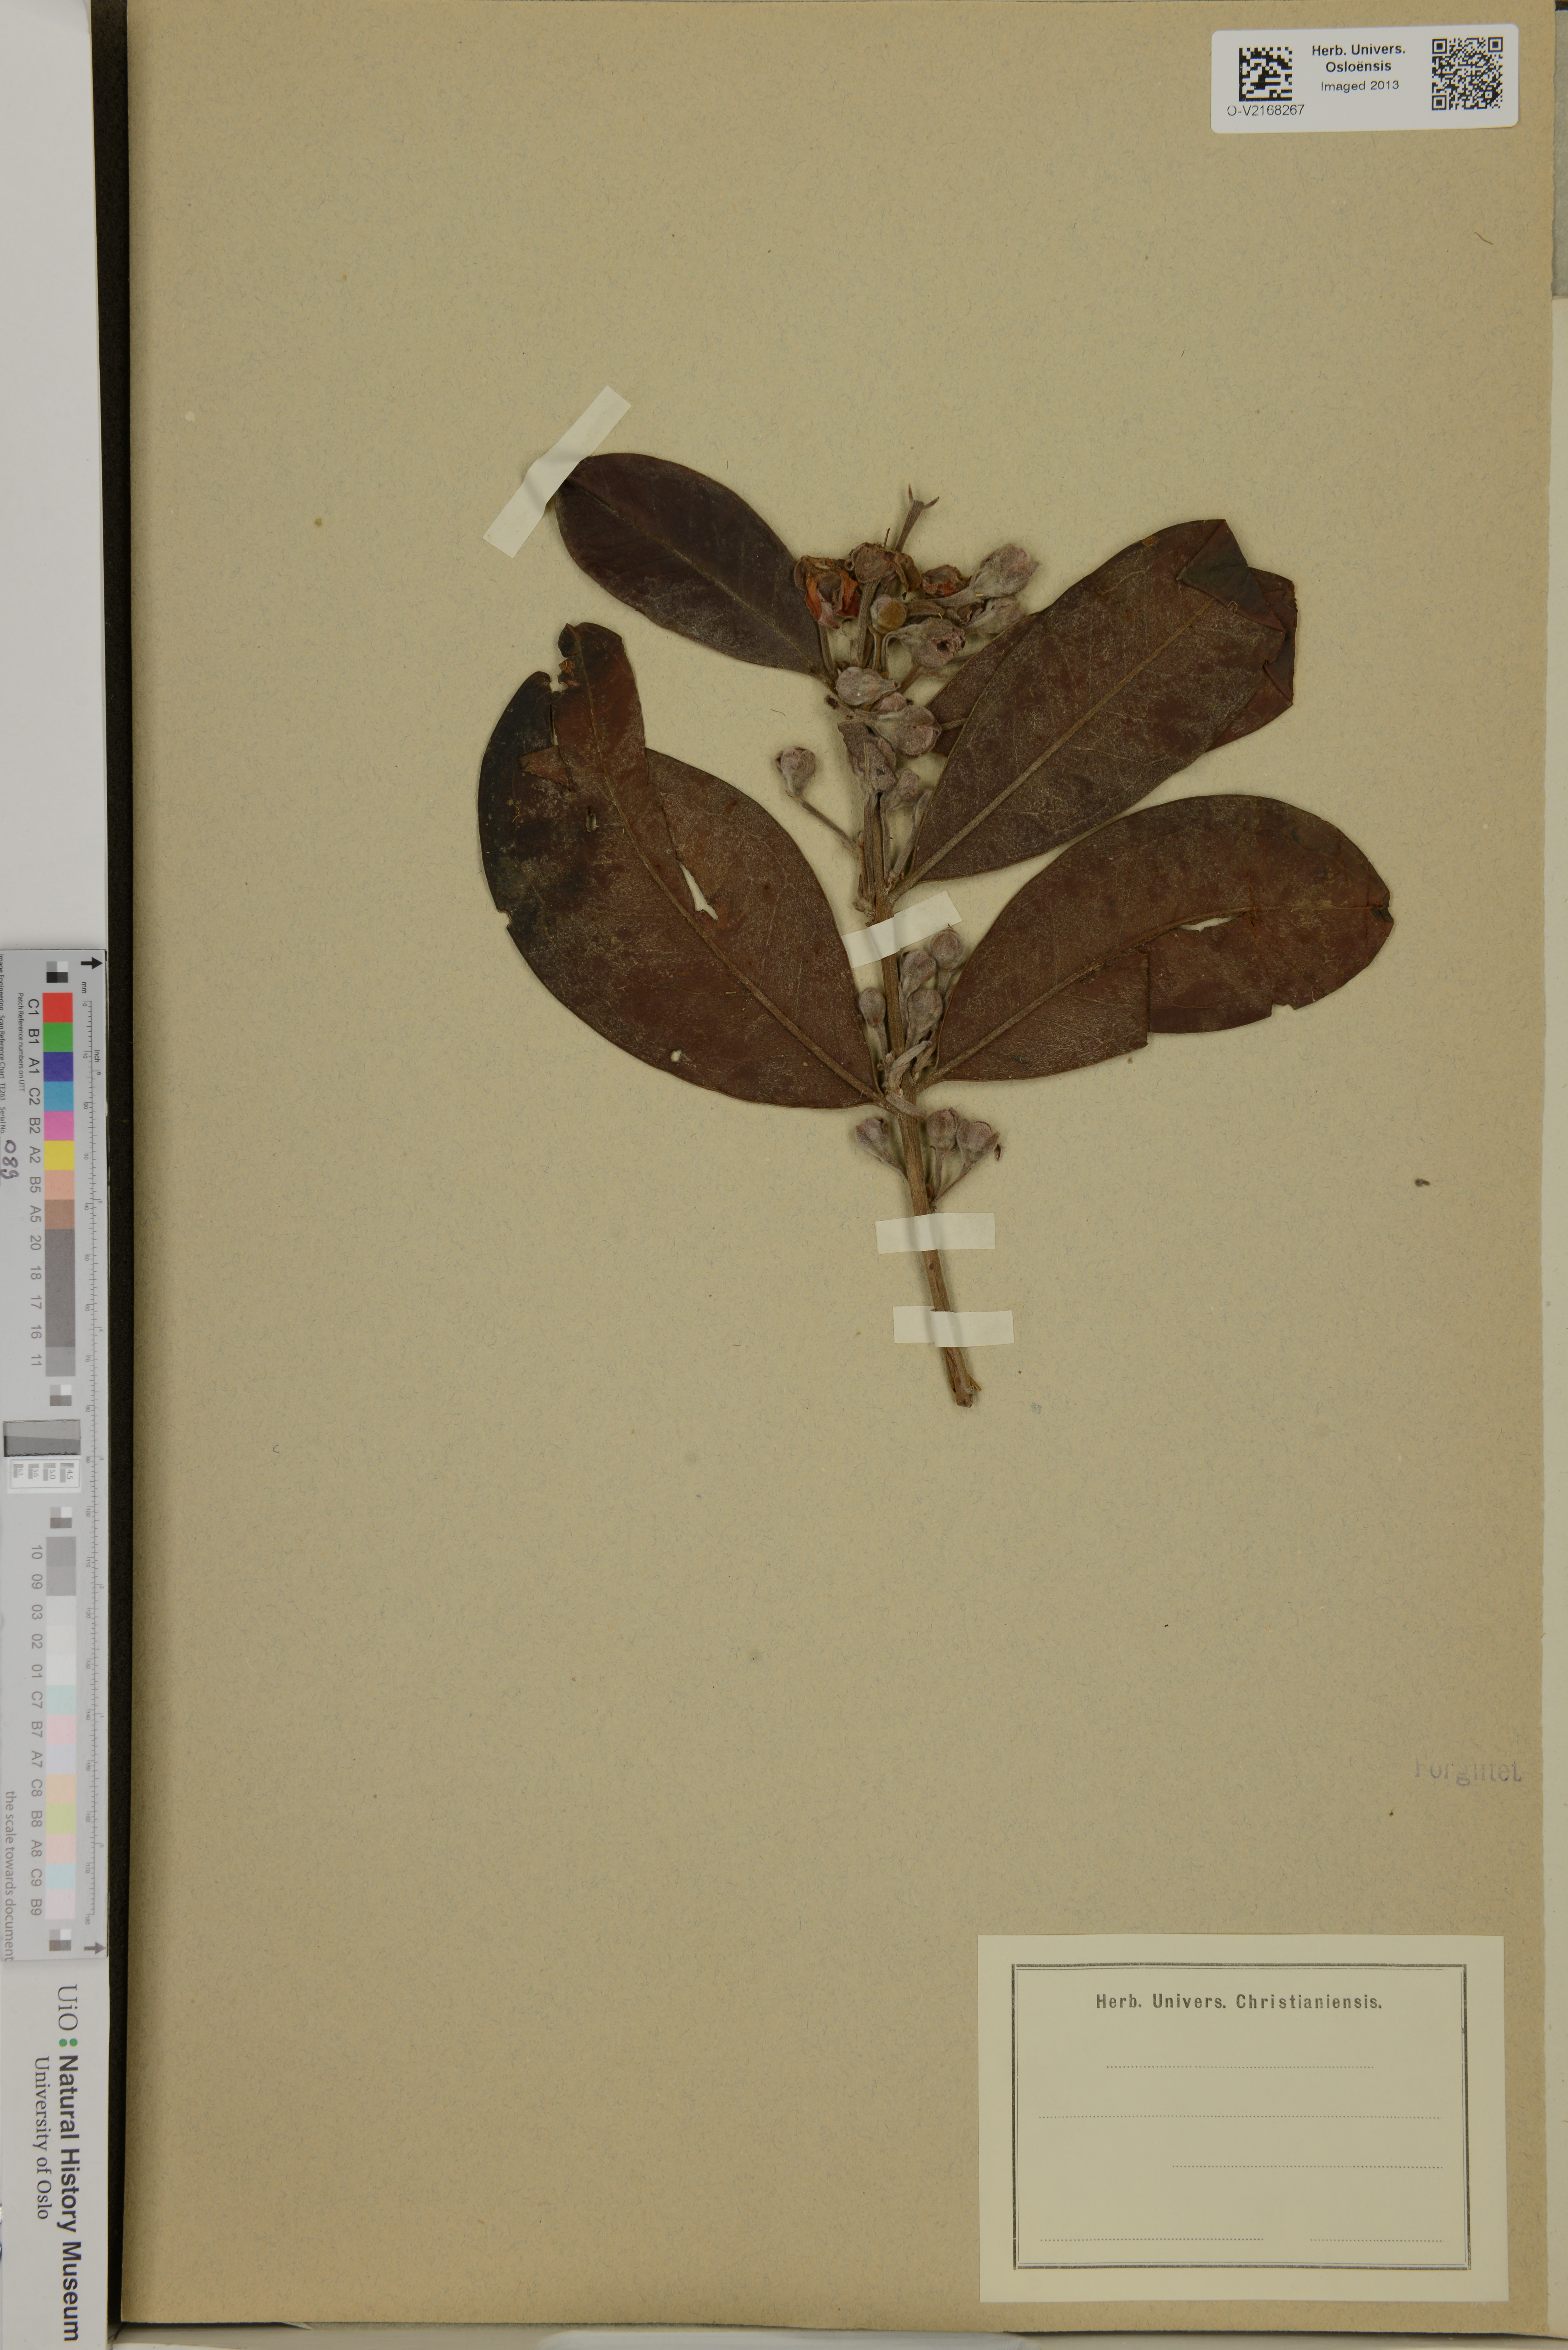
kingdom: Plantae
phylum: Tracheophyta
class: Magnoliopsida
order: Myrtales
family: Myrtaceae
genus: Eugenia
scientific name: Eugenia klotzschiana
